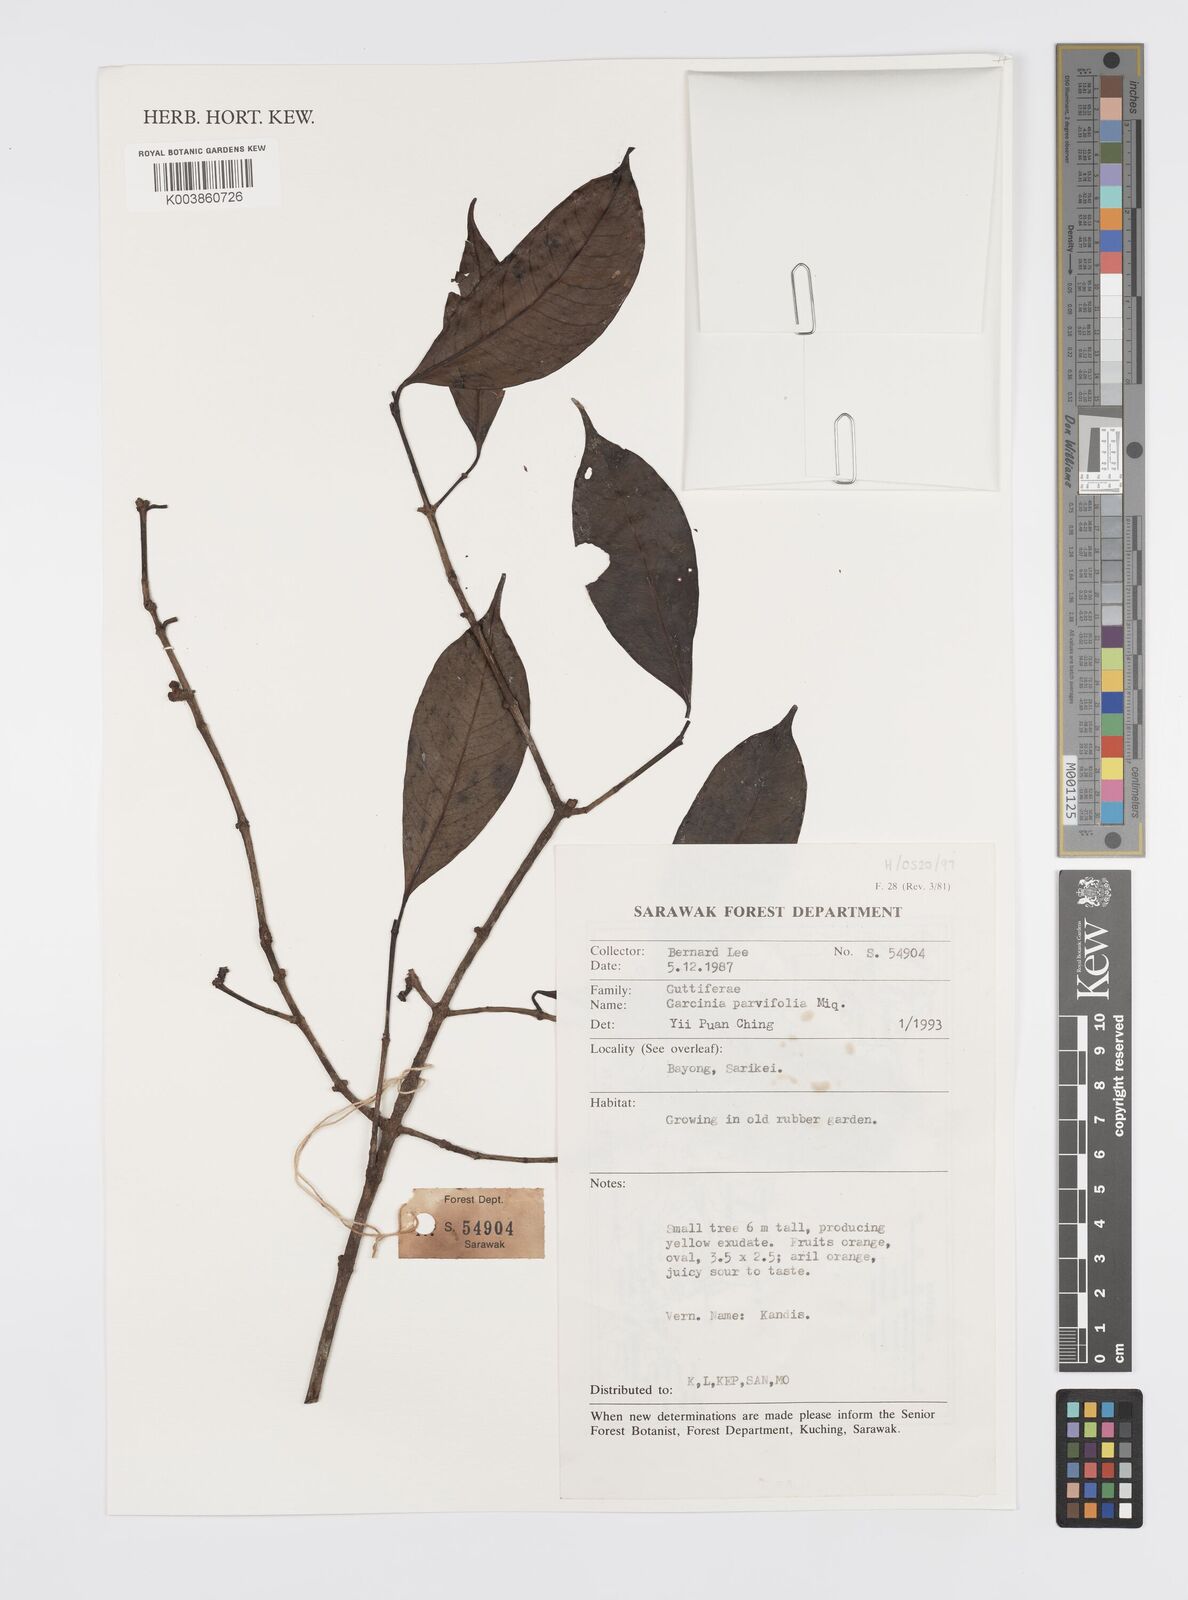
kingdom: Plantae
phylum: Tracheophyta
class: Magnoliopsida
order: Malpighiales
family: Clusiaceae
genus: Garcinia
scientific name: Garcinia parvifolia
